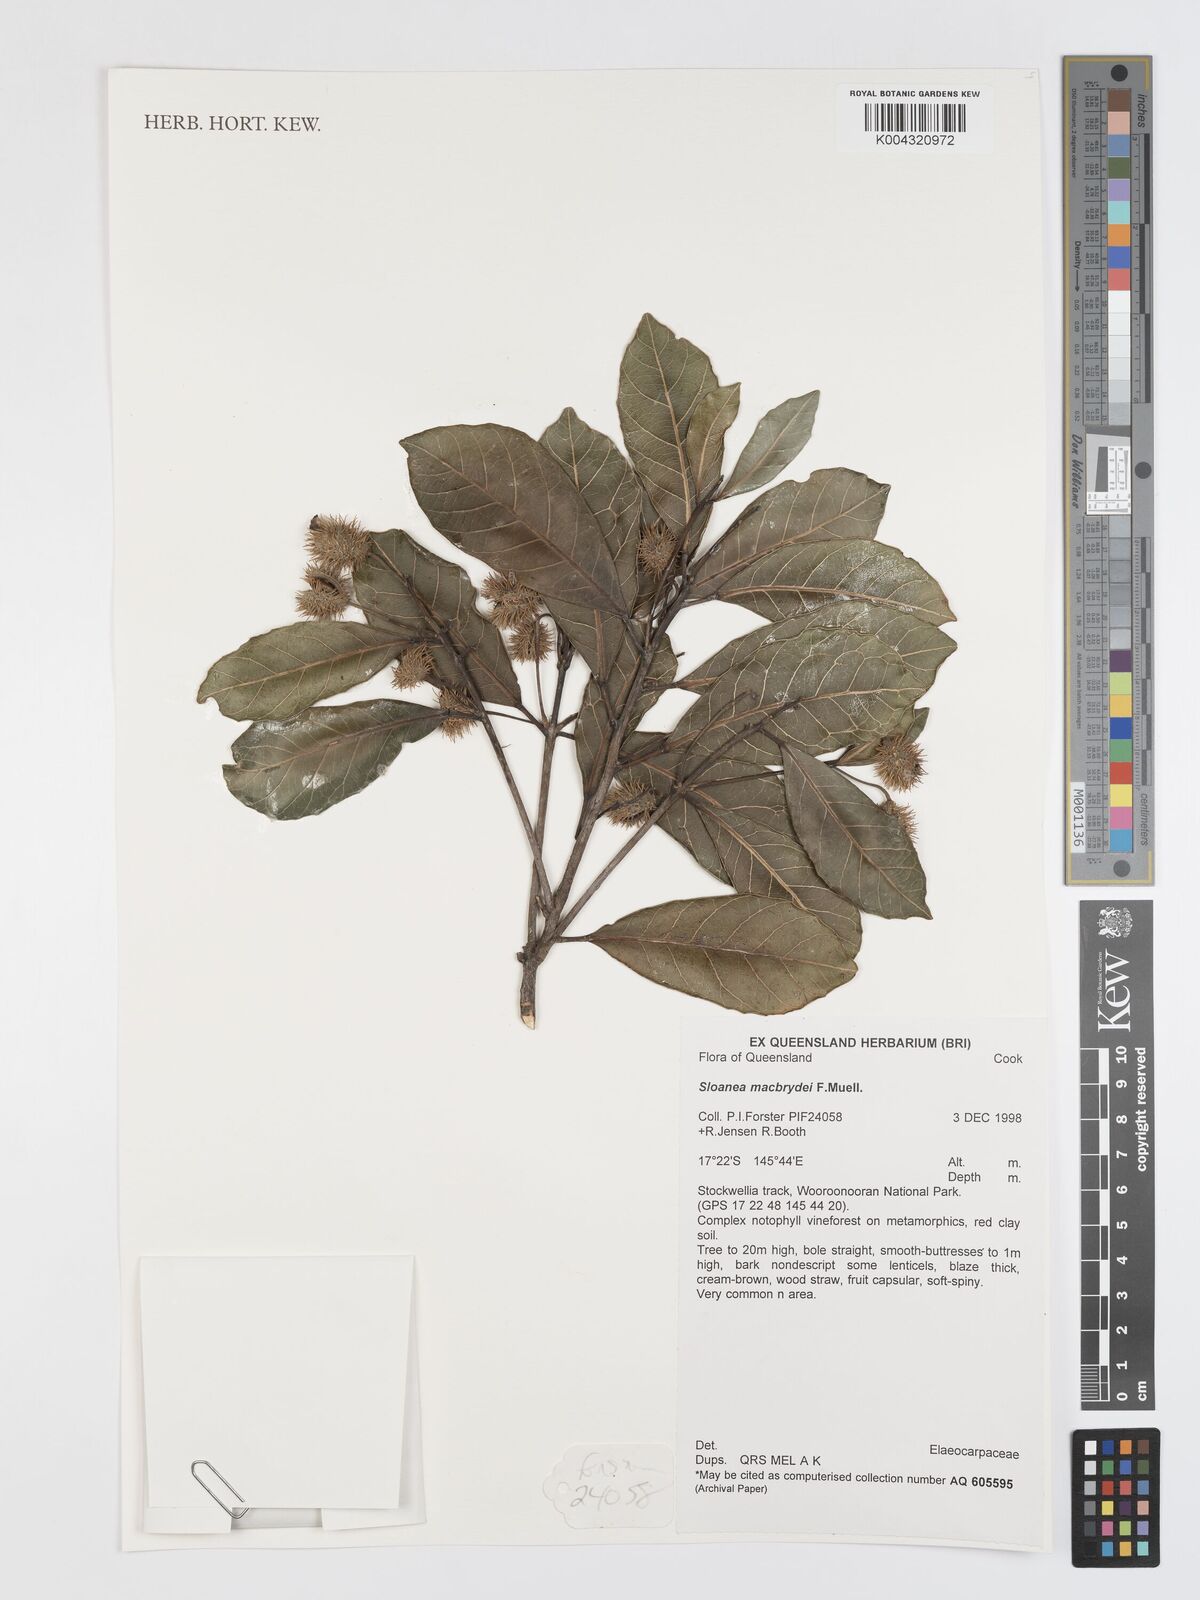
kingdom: Plantae
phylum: Tracheophyta
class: Magnoliopsida
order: Oxalidales
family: Elaeocarpaceae
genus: Sloanea
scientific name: Sloanea macbrydei
